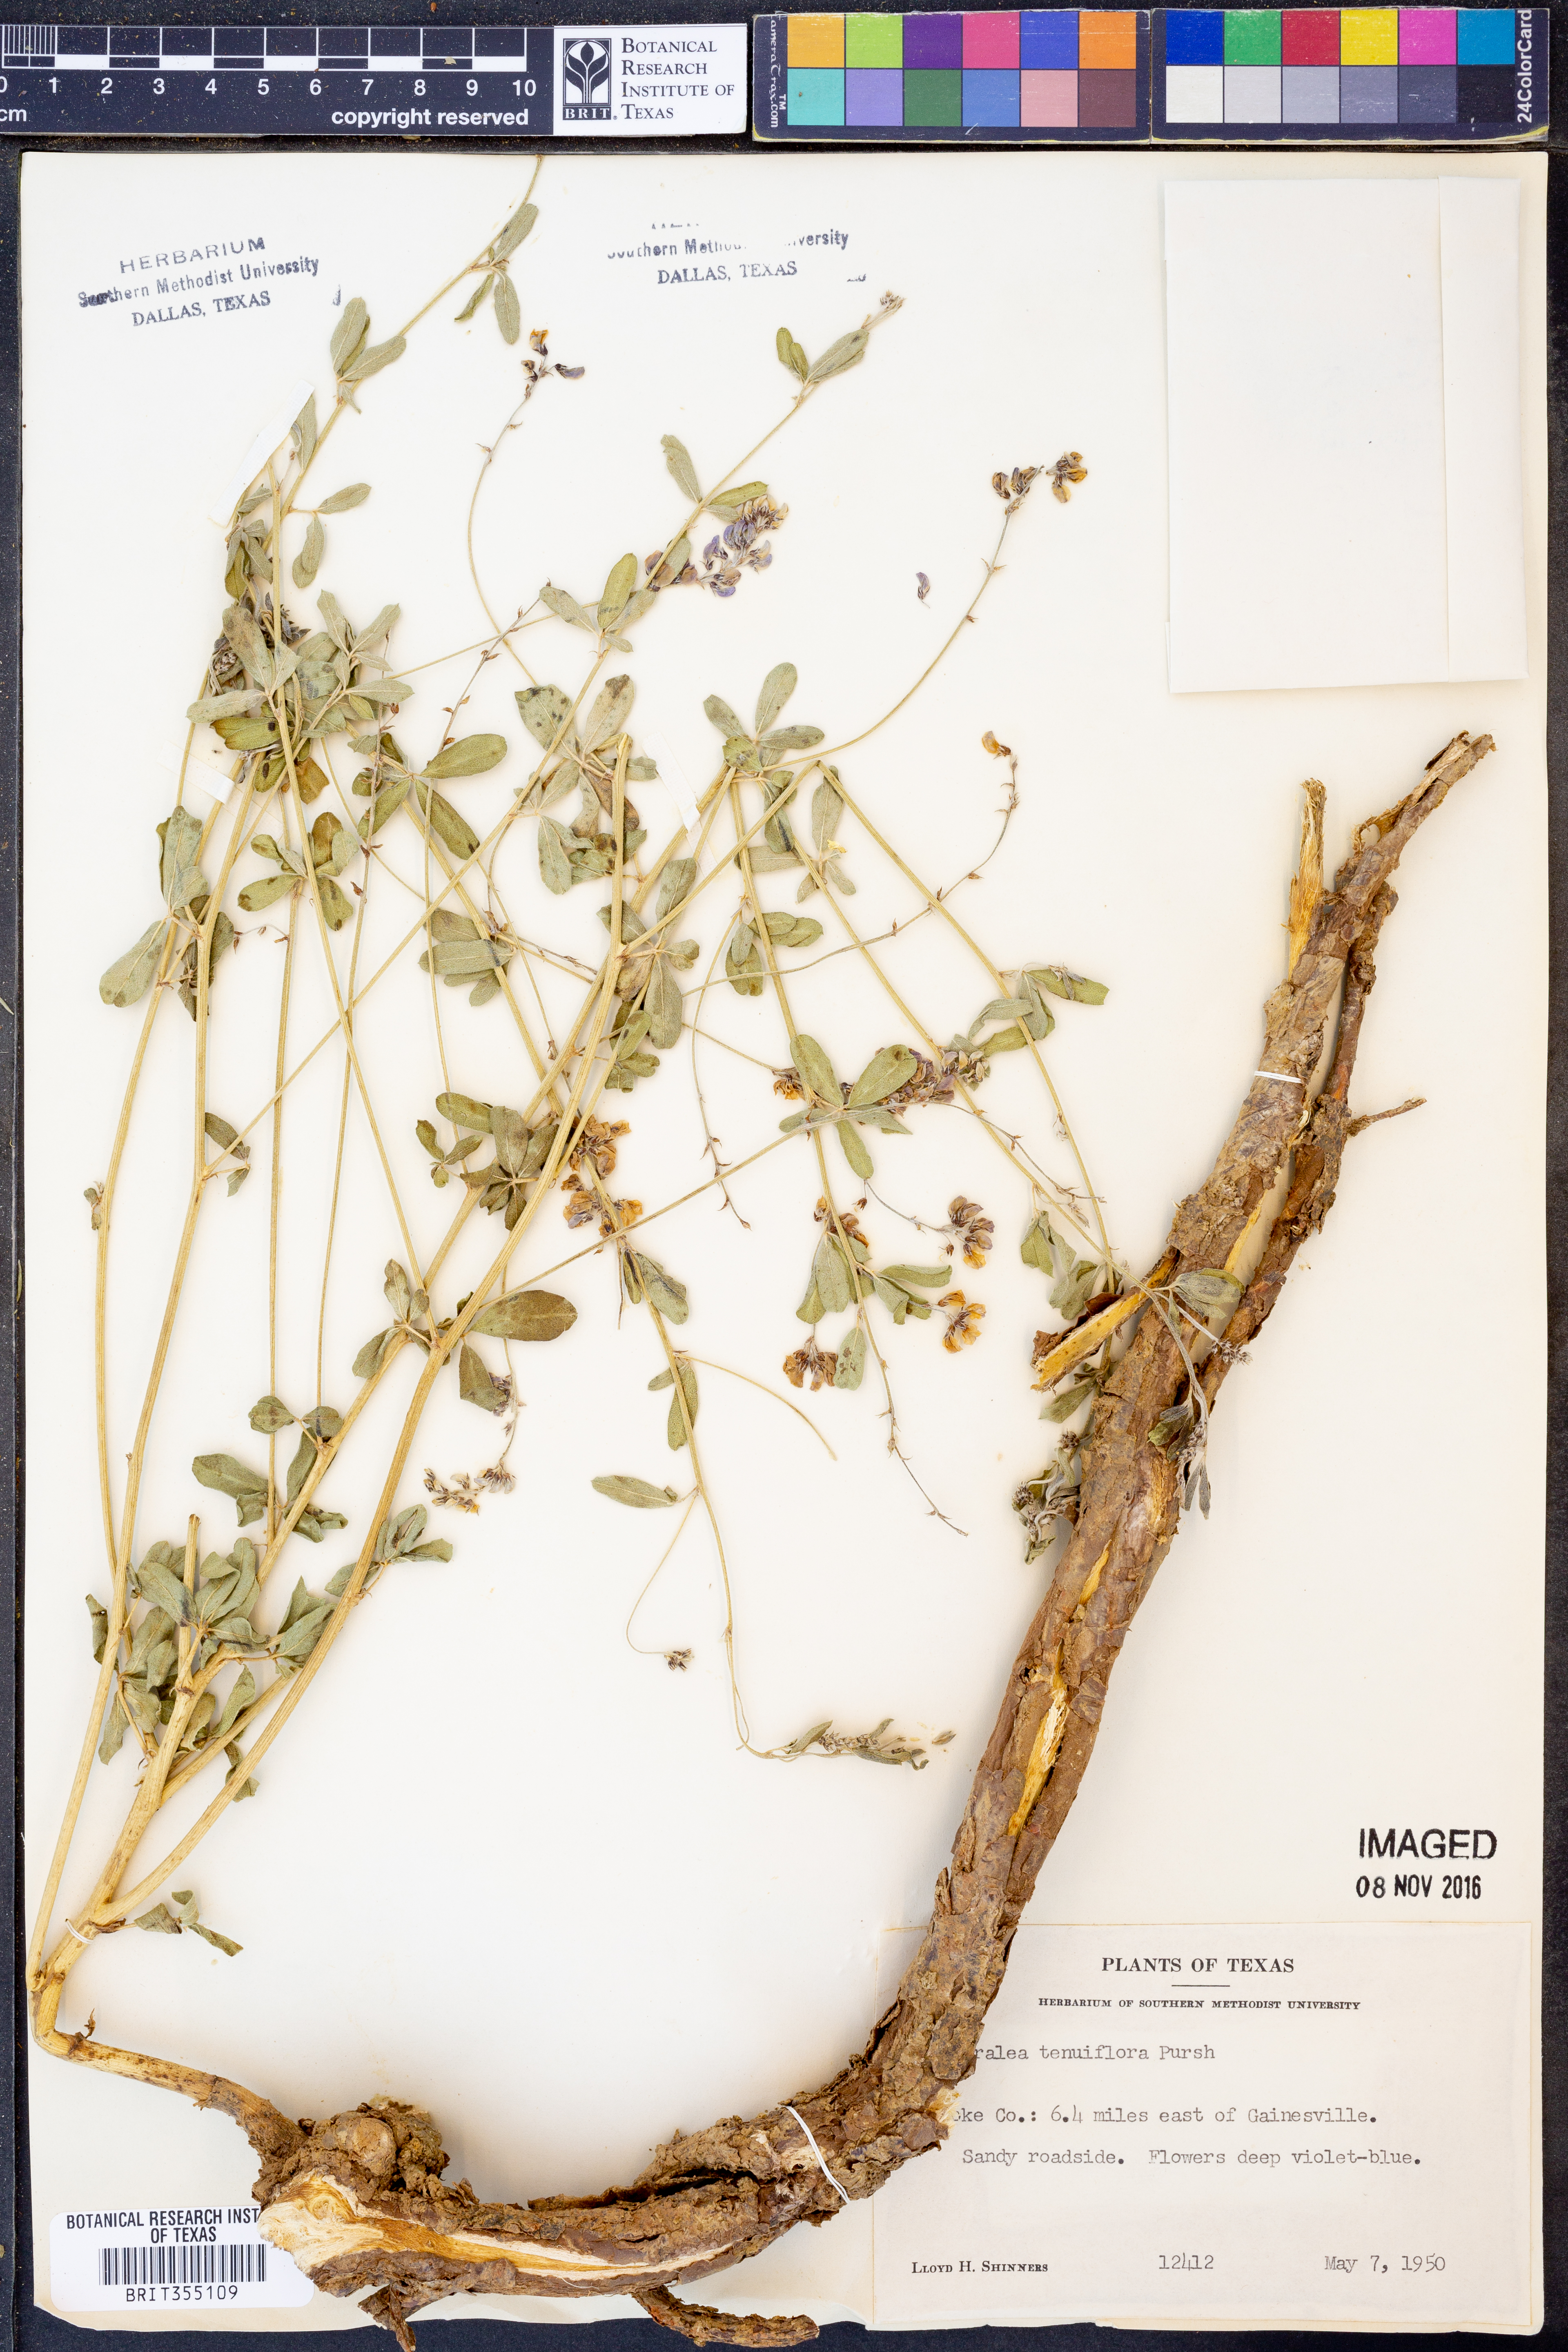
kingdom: Plantae
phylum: Tracheophyta
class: Magnoliopsida
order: Fabales
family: Fabaceae
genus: Pediomelum
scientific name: Pediomelum tenuiflorum
